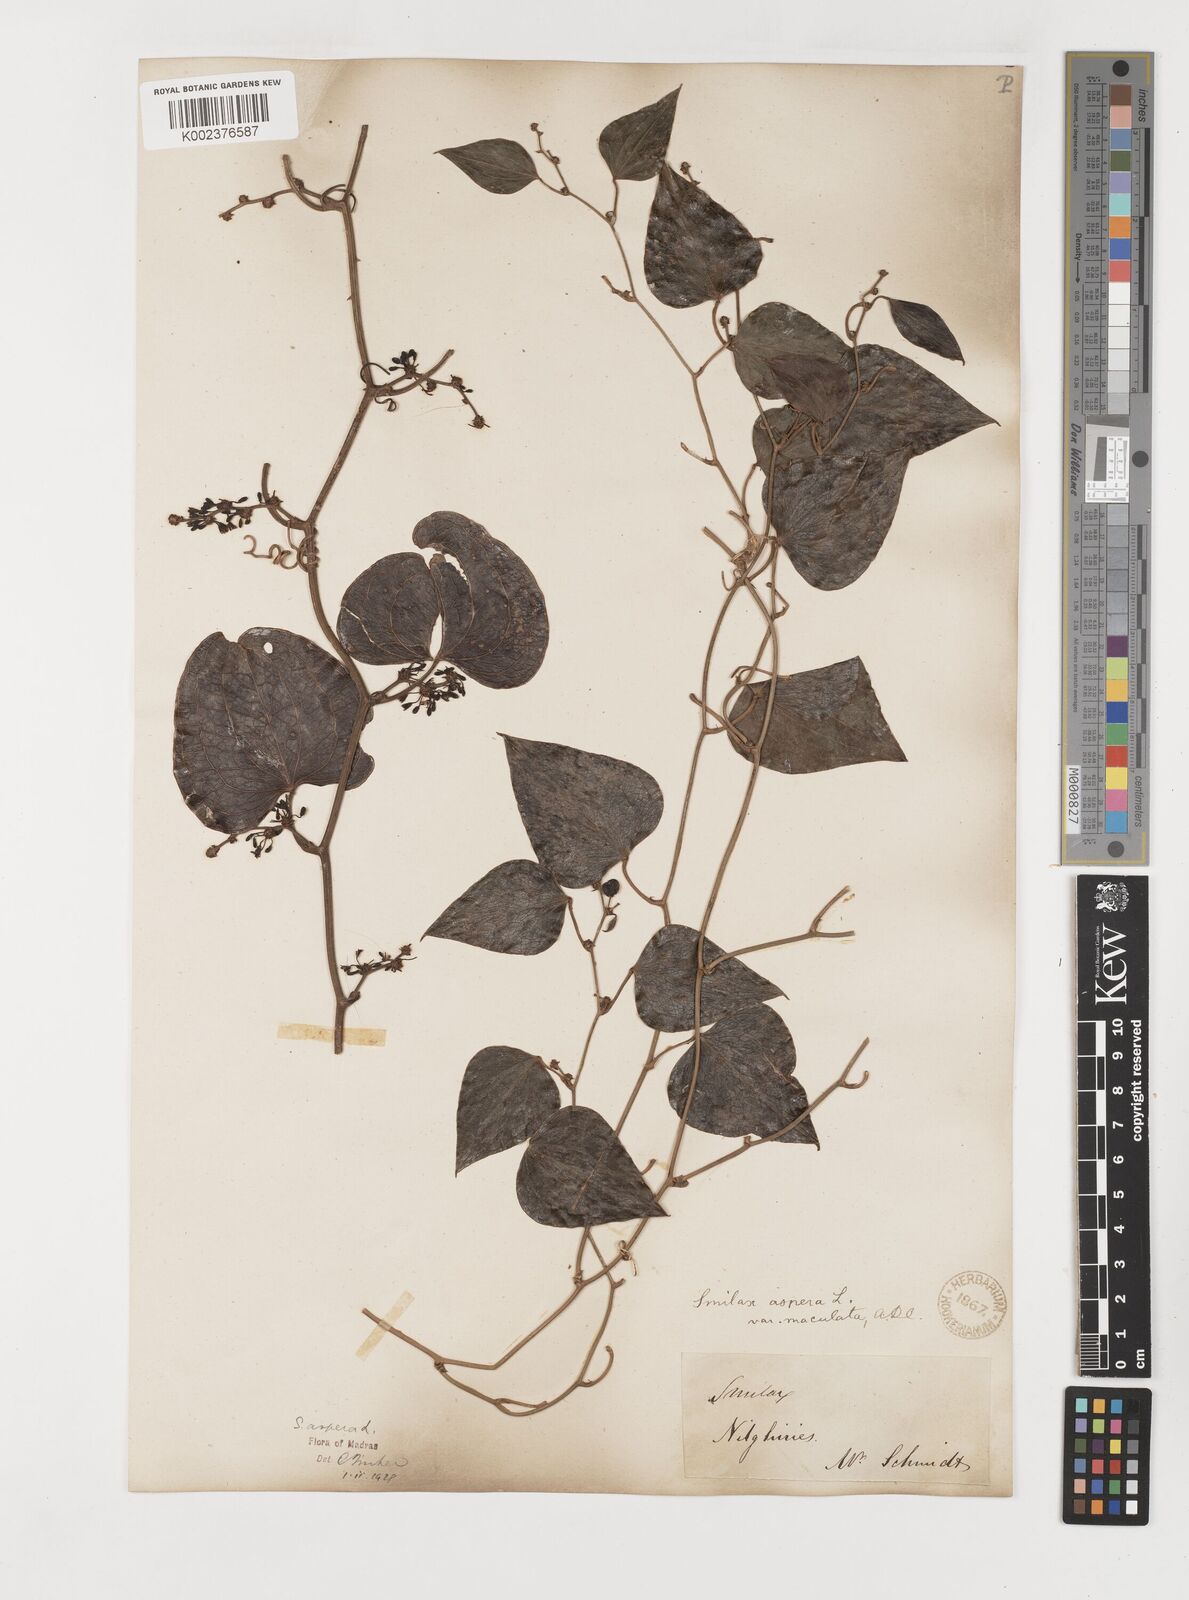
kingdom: Plantae
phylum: Tracheophyta
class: Liliopsida
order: Liliales
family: Smilacaceae
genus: Smilax
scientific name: Smilax aspera
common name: Common smilax
